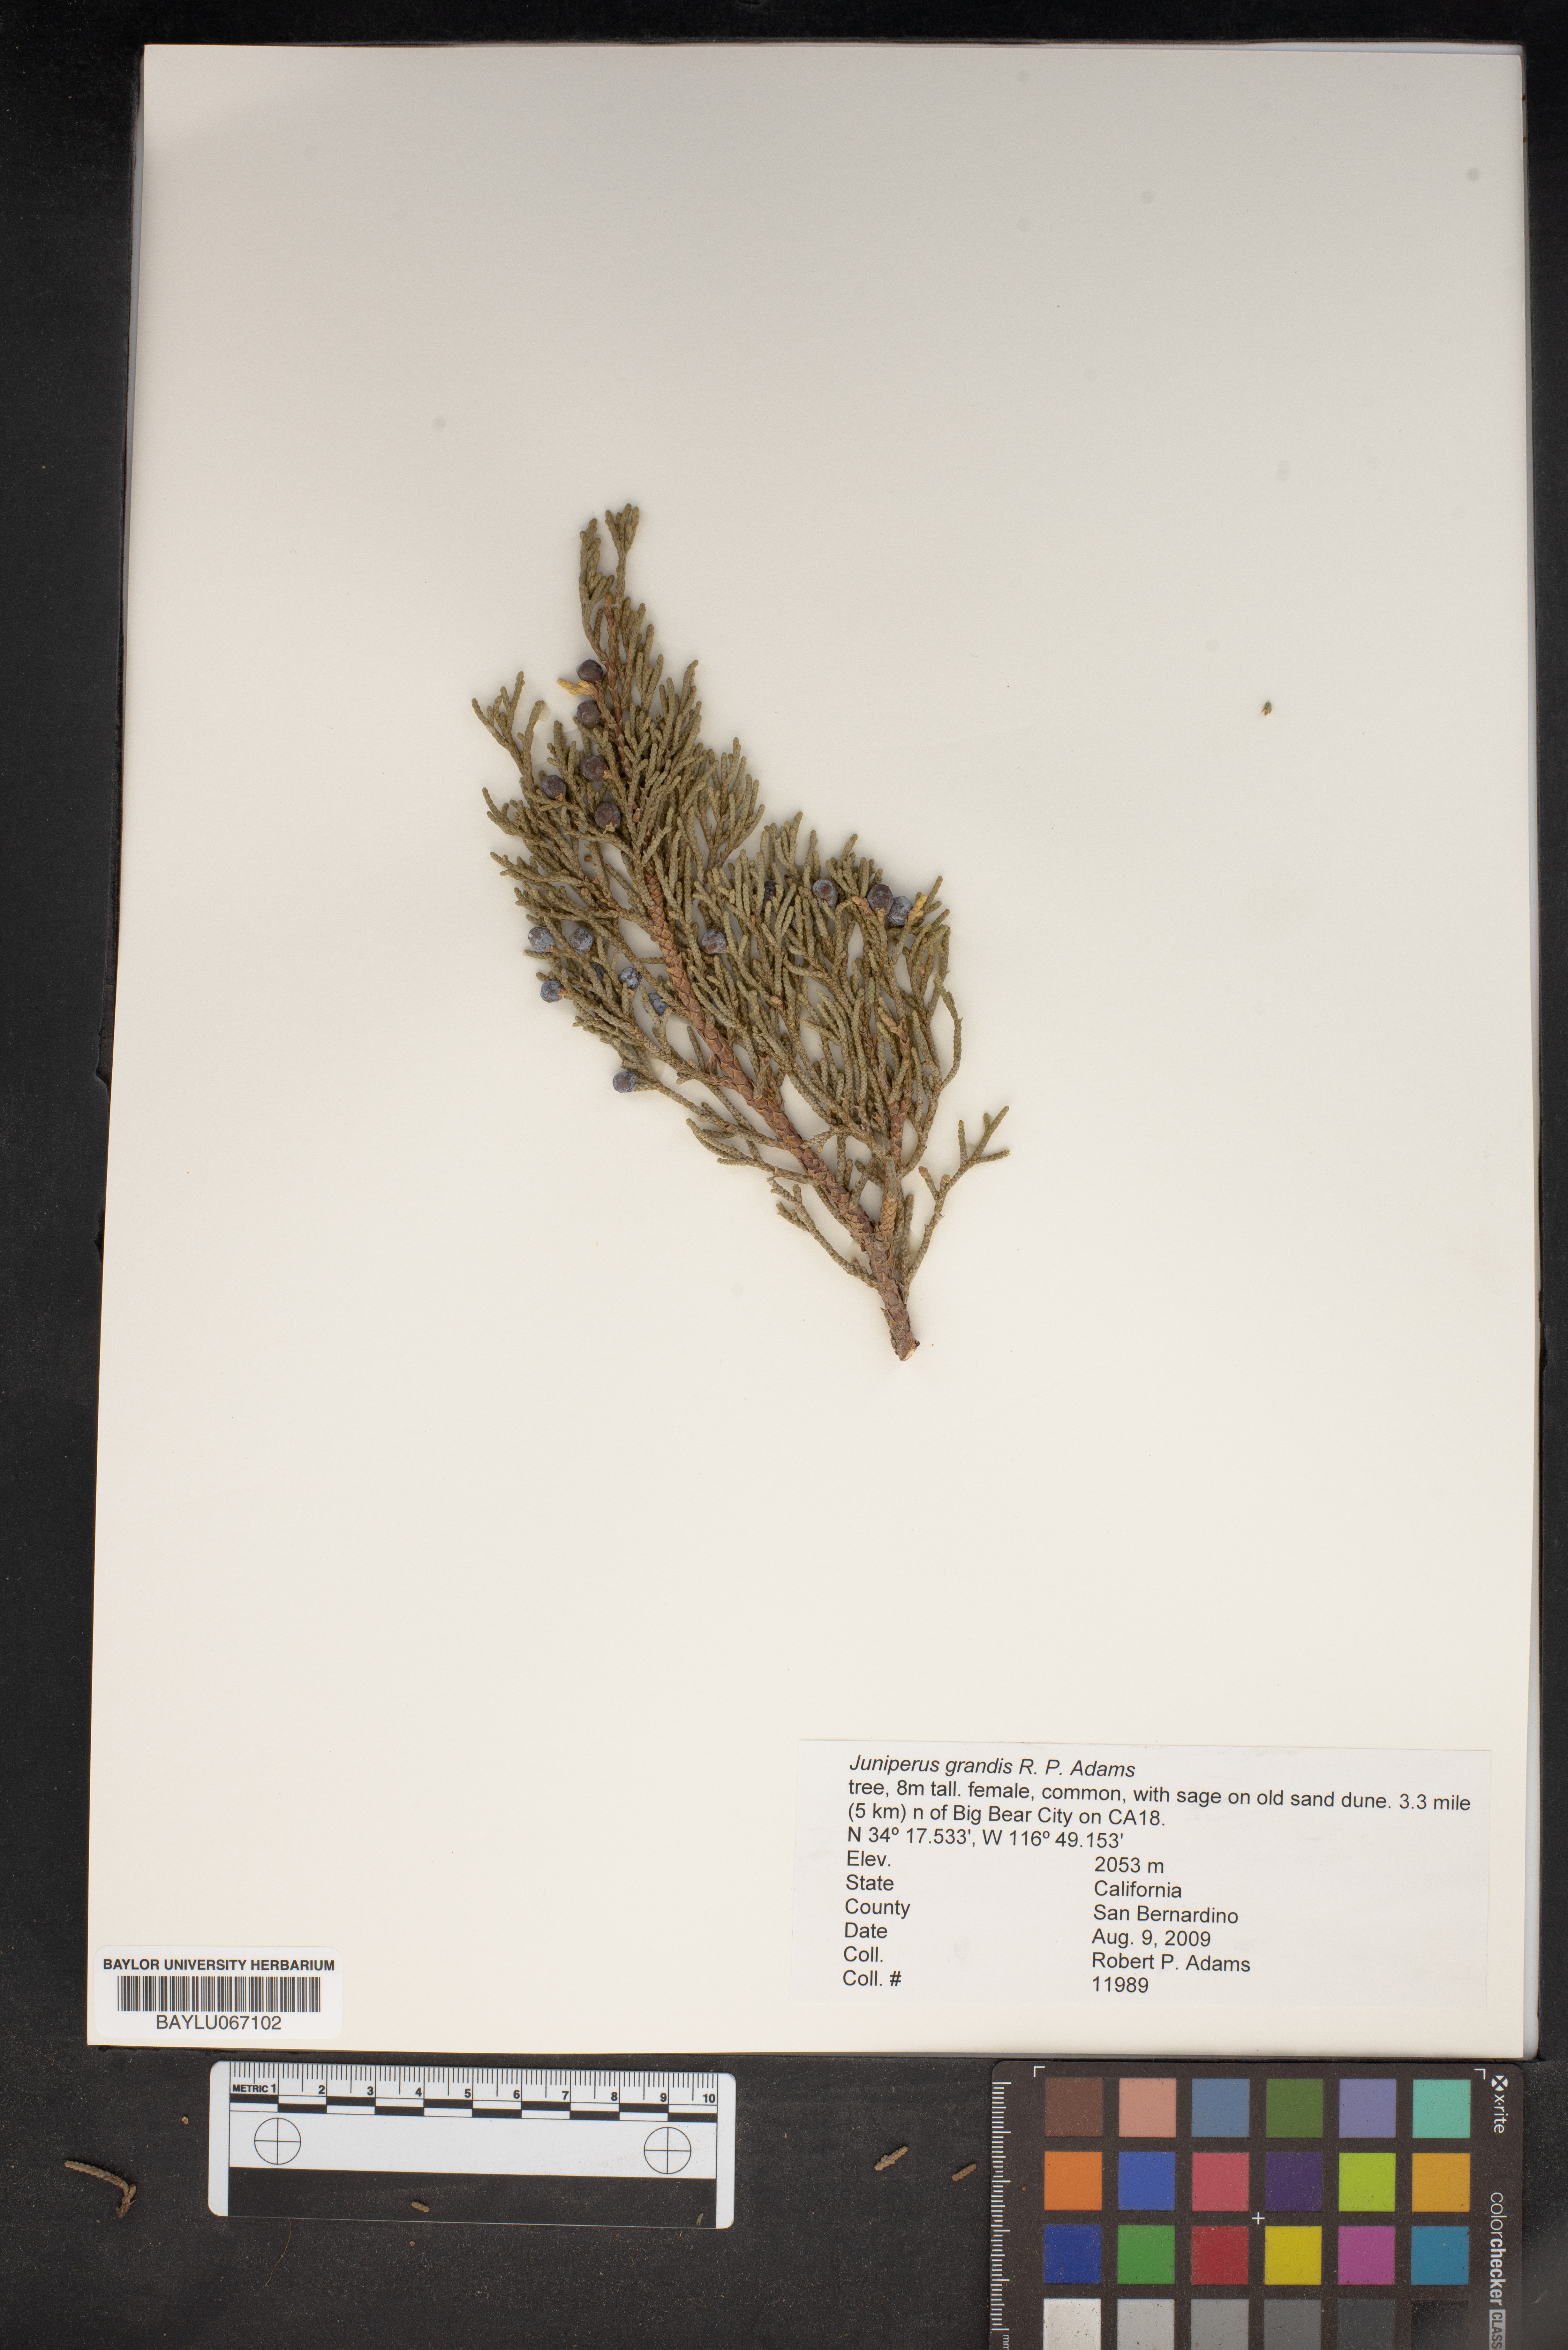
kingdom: Plantae
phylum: Tracheophyta
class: Pinopsida
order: Pinales
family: Cupressaceae
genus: Juniperus
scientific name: Juniperus occidentalis
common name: Western juniper
